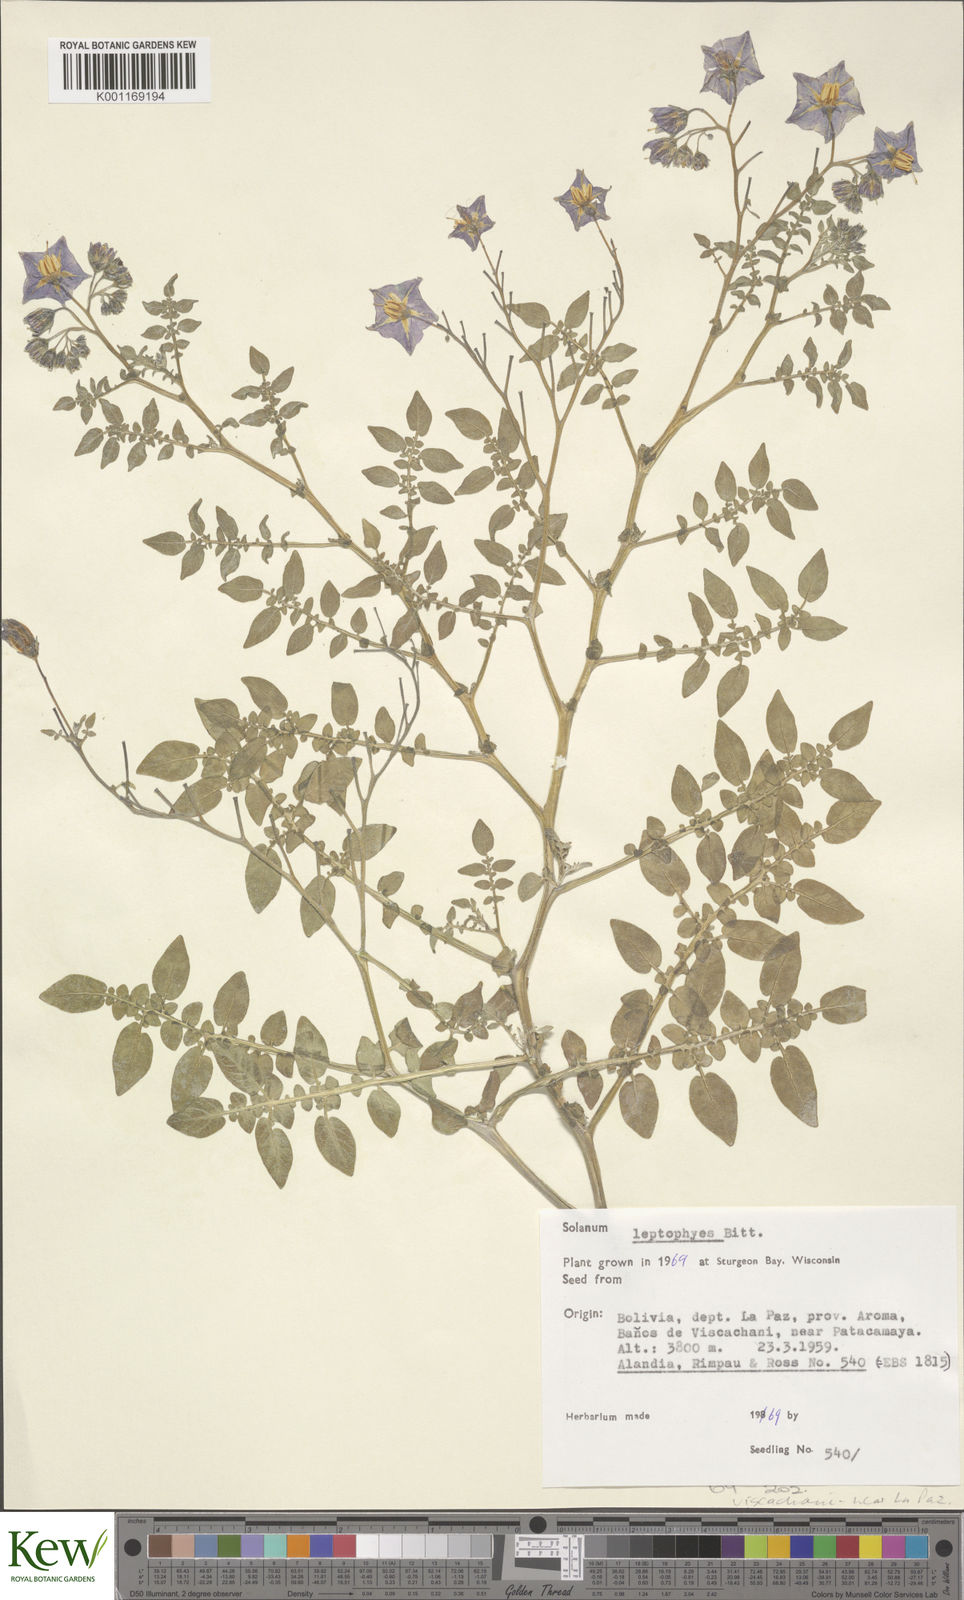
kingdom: Plantae
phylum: Tracheophyta
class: Magnoliopsida
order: Solanales
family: Solanaceae
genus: Solanum
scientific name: Solanum brevicaule
